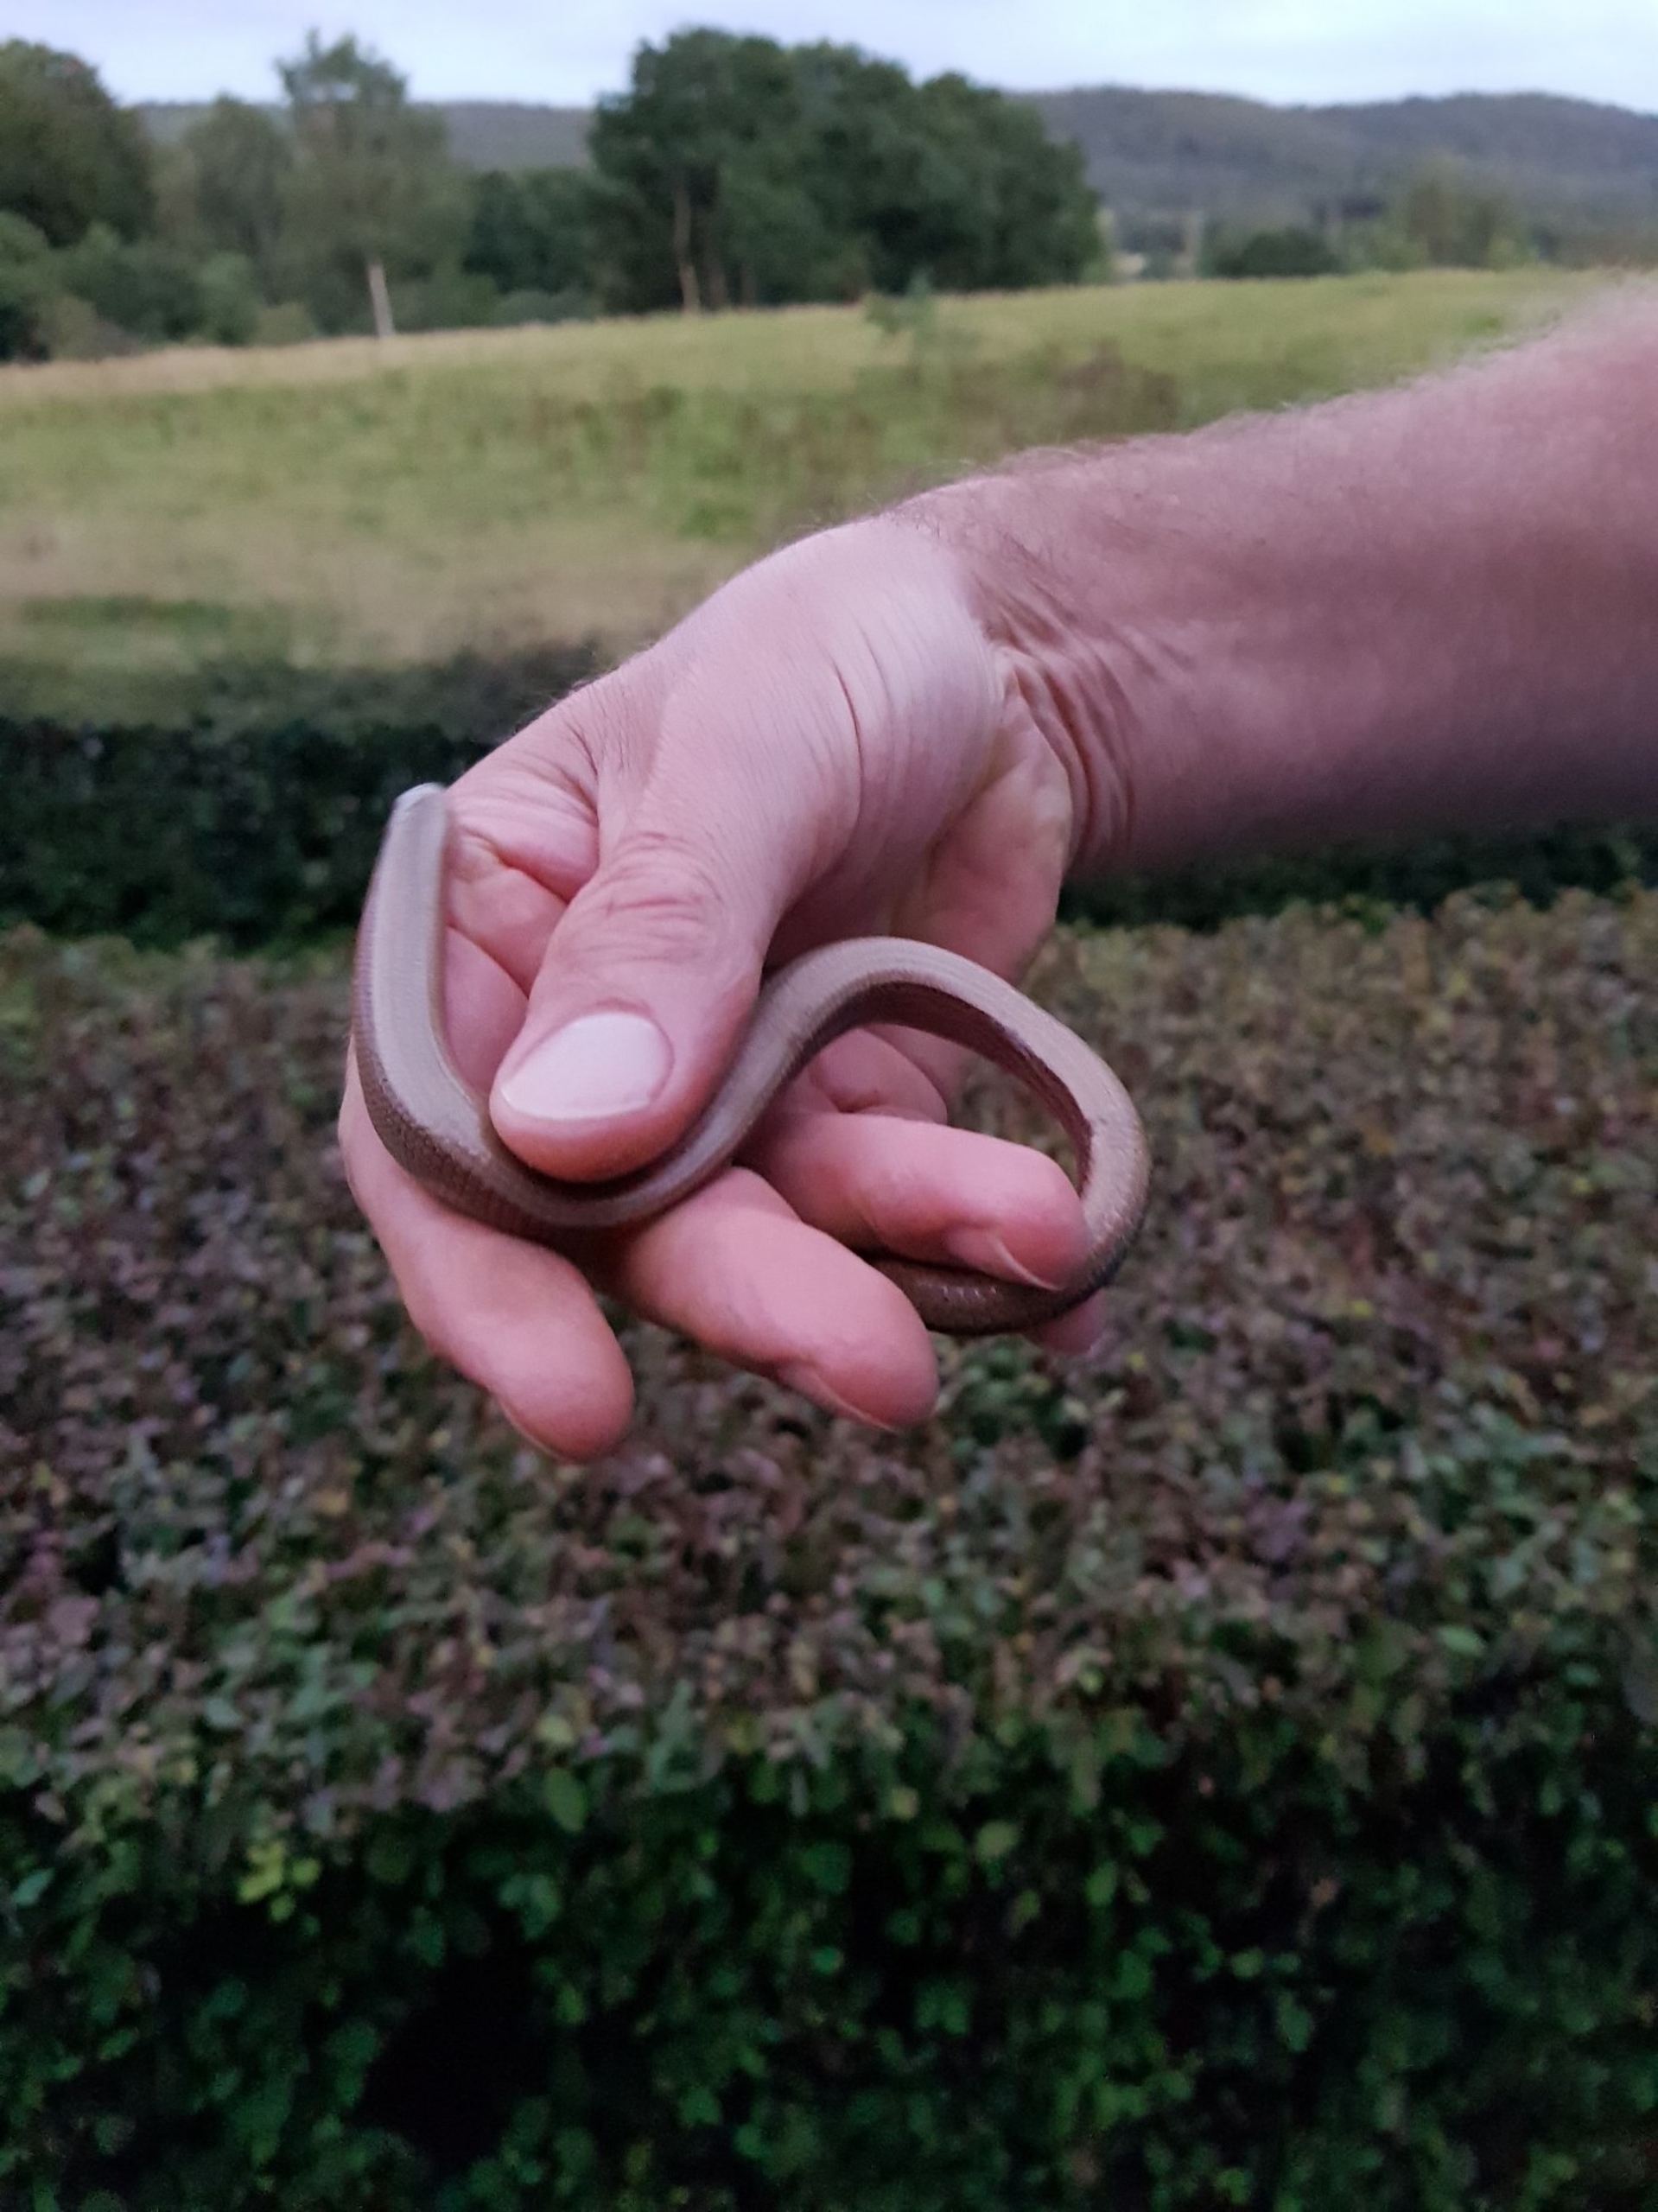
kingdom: Animalia
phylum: Chordata
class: Squamata
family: Anguidae
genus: Anguis
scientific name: Anguis fragilis
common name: Stålorm
